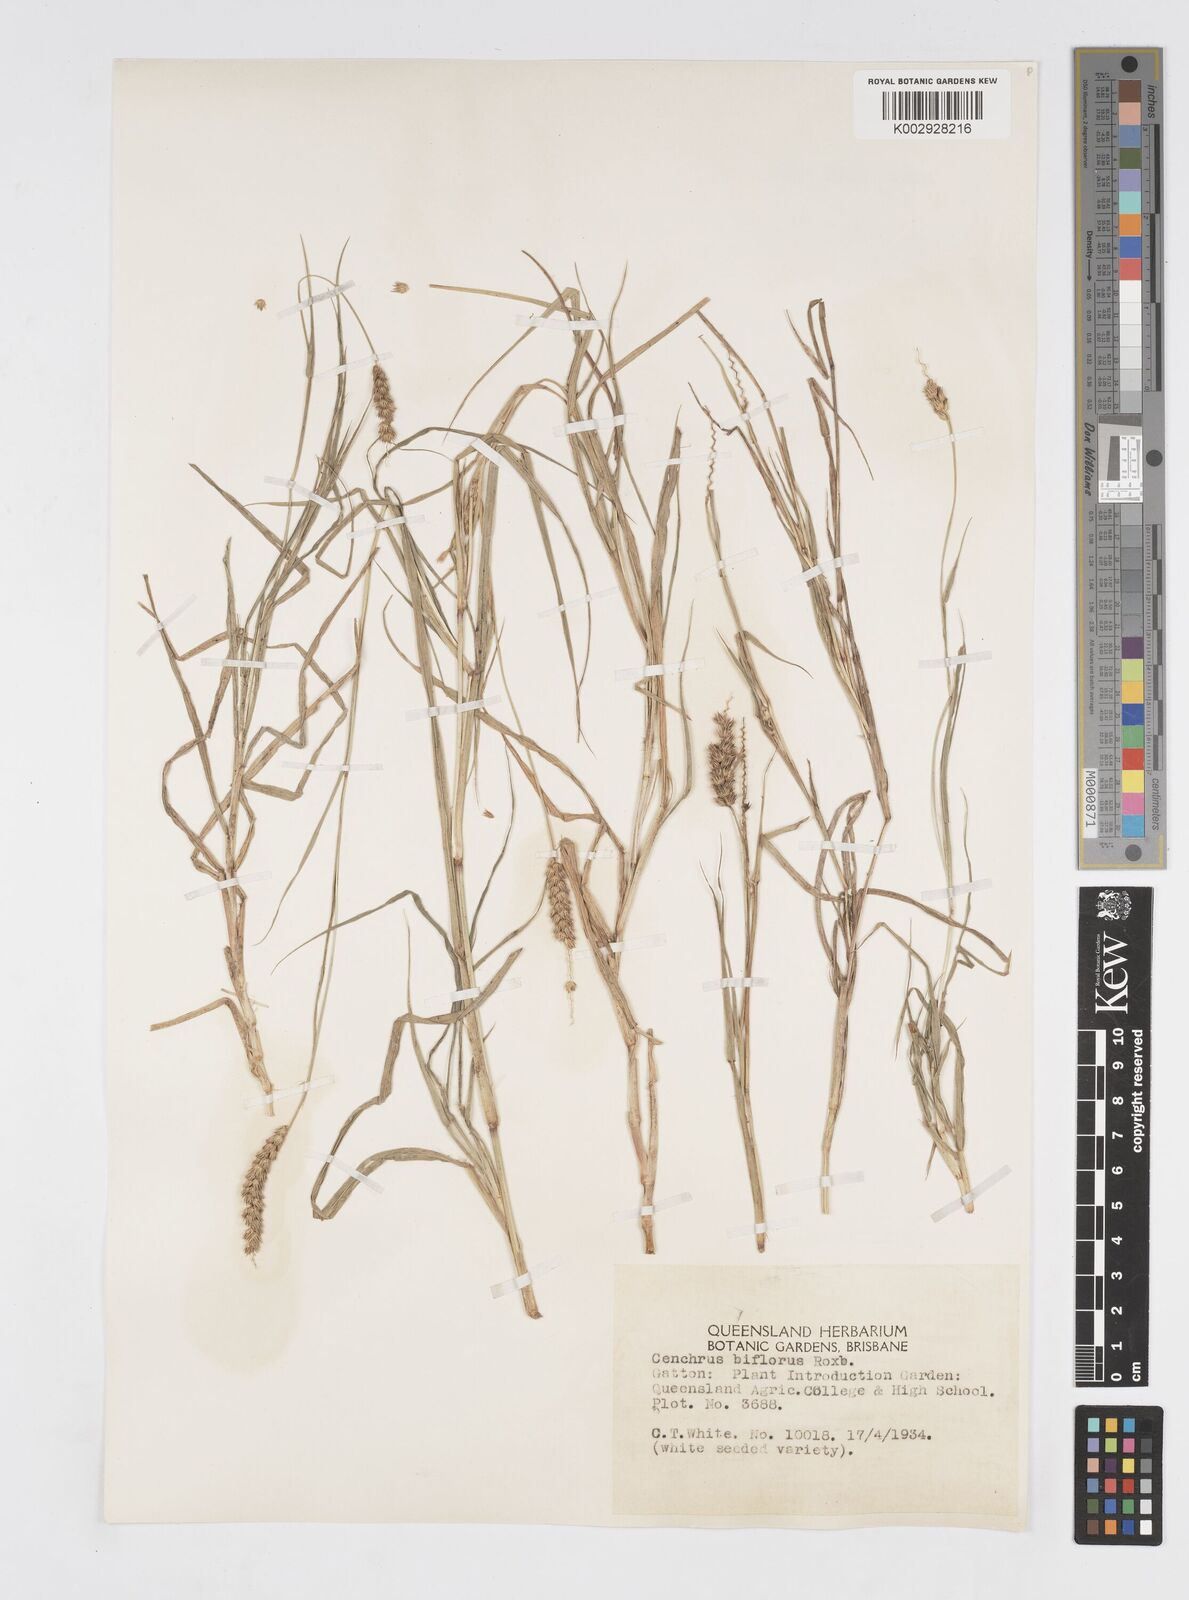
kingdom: Plantae
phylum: Tracheophyta
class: Liliopsida
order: Poales
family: Poaceae
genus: Cenchrus
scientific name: Cenchrus setigerus
